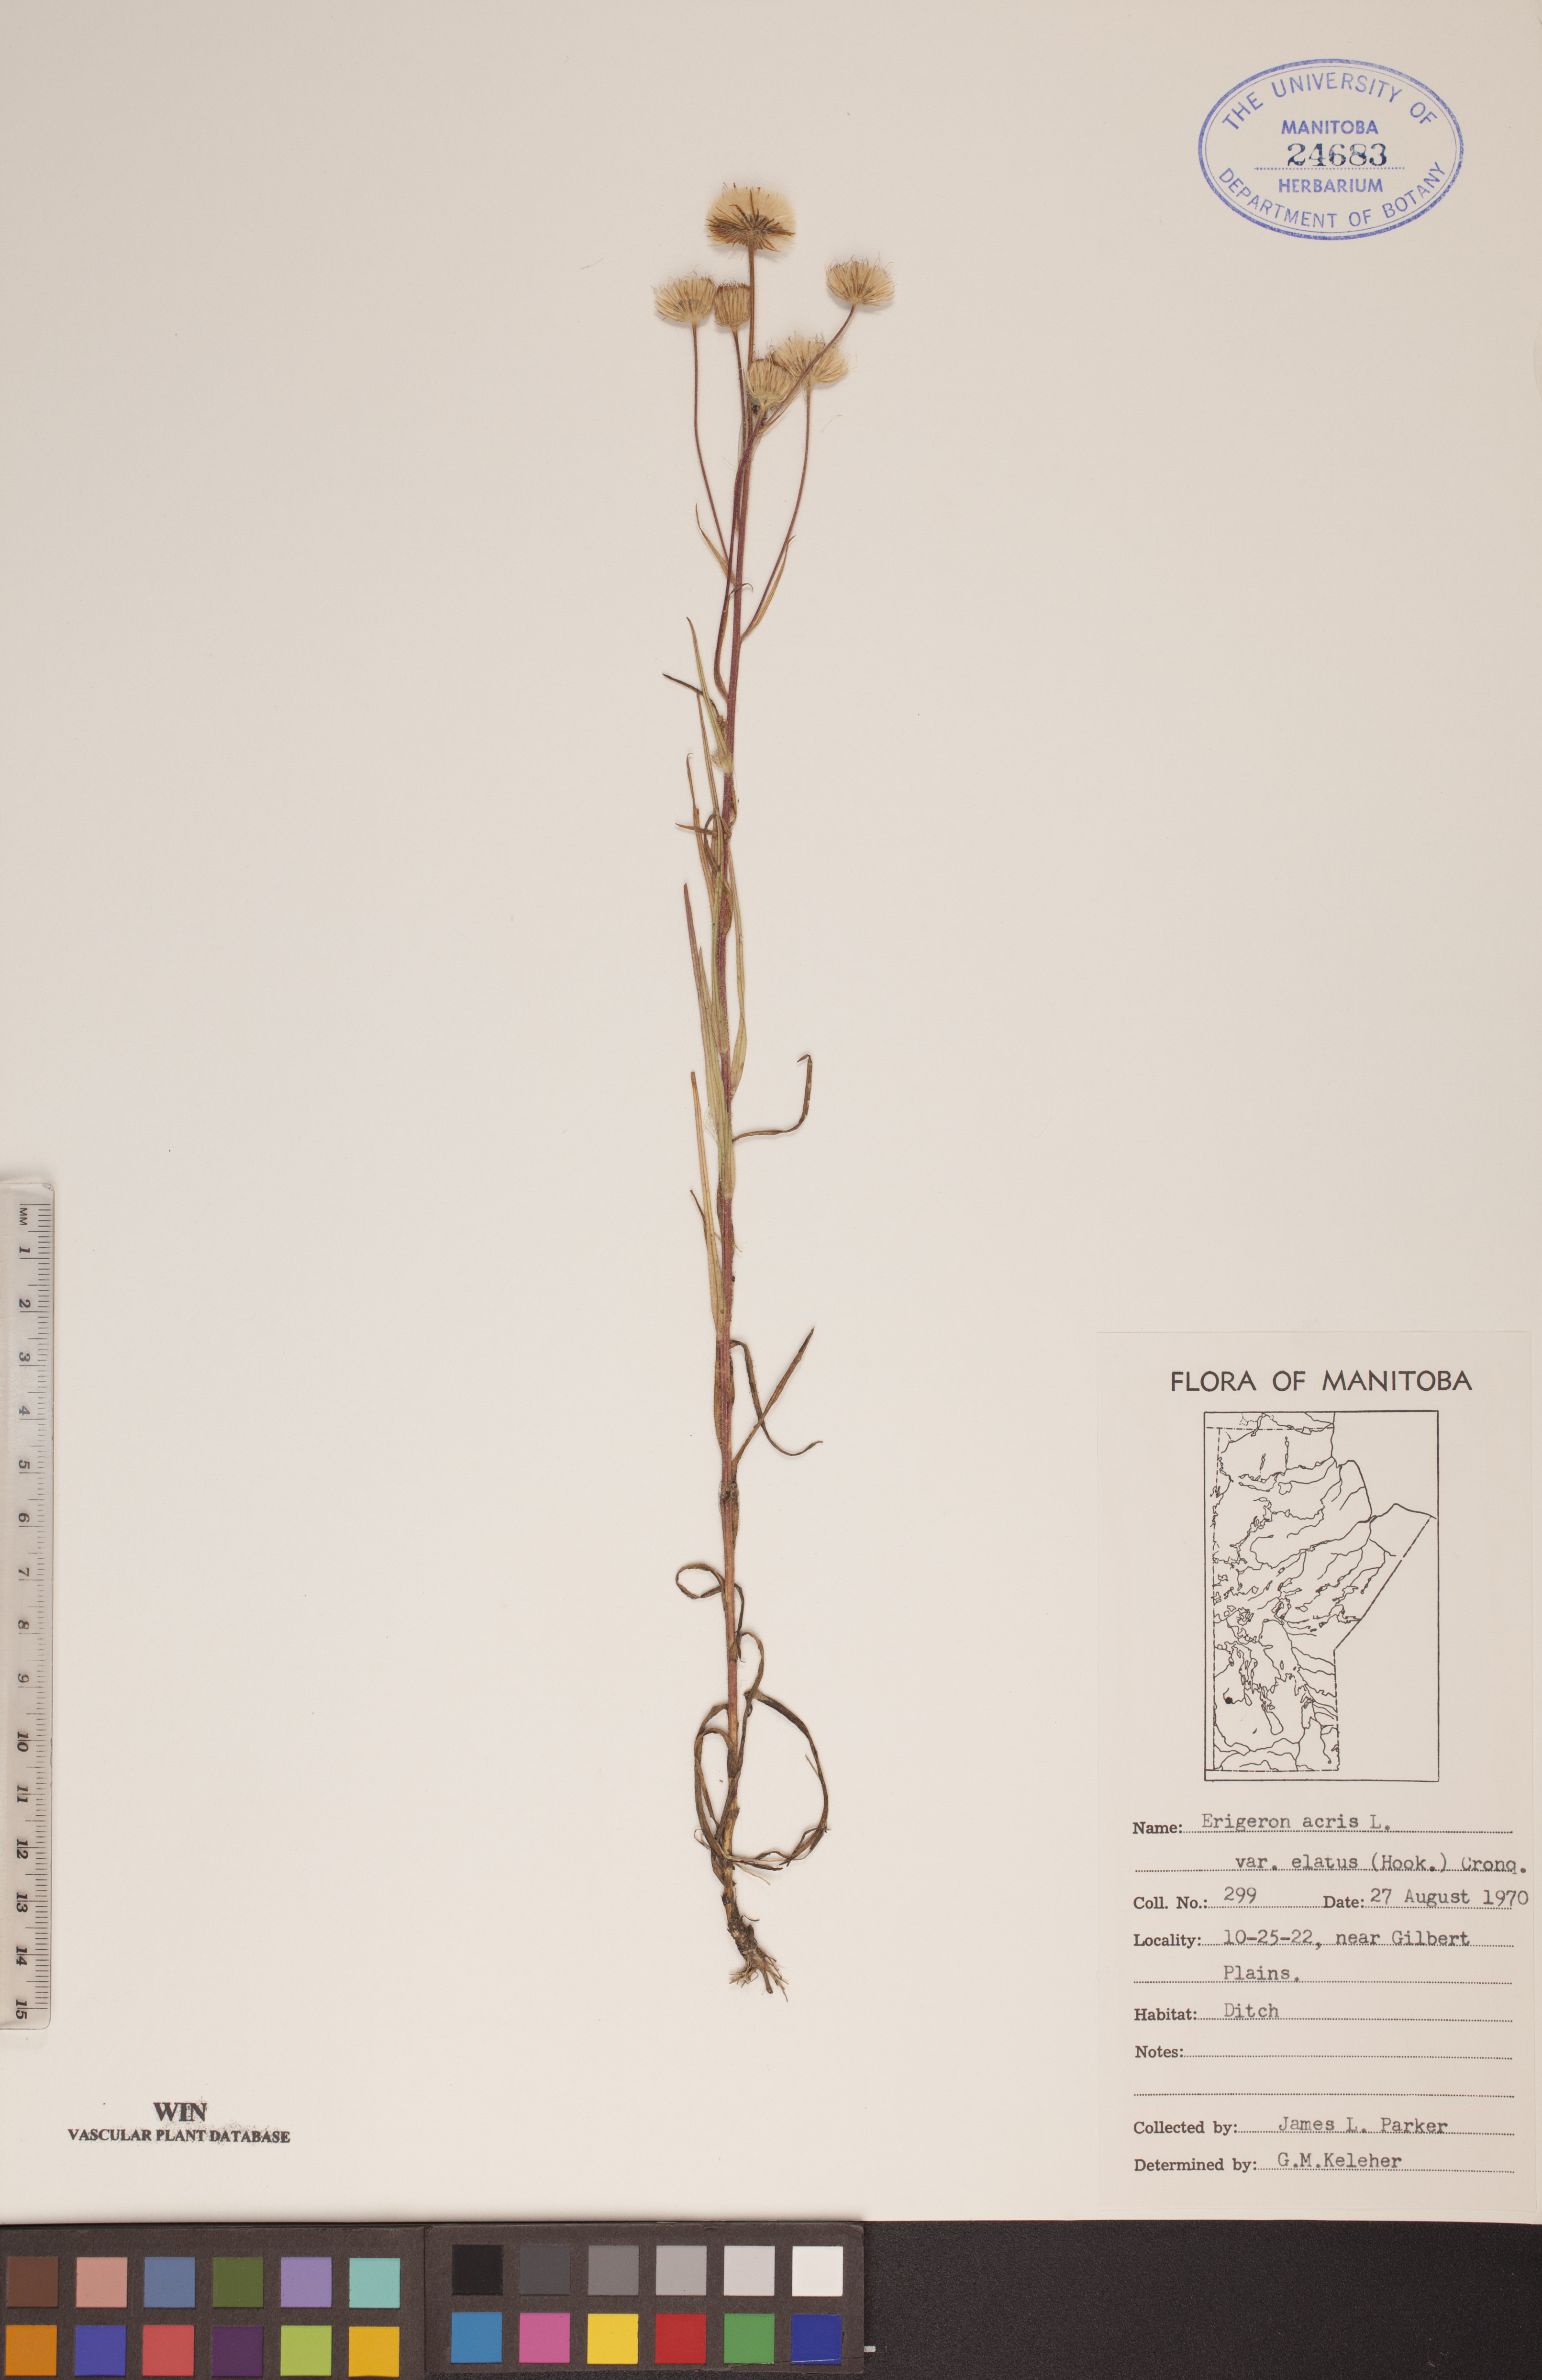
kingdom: Plantae
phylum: Tracheophyta
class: Magnoliopsida
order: Asterales
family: Asteraceae
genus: Erigeron
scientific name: Erigeron elatus
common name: Swamp fleabane
